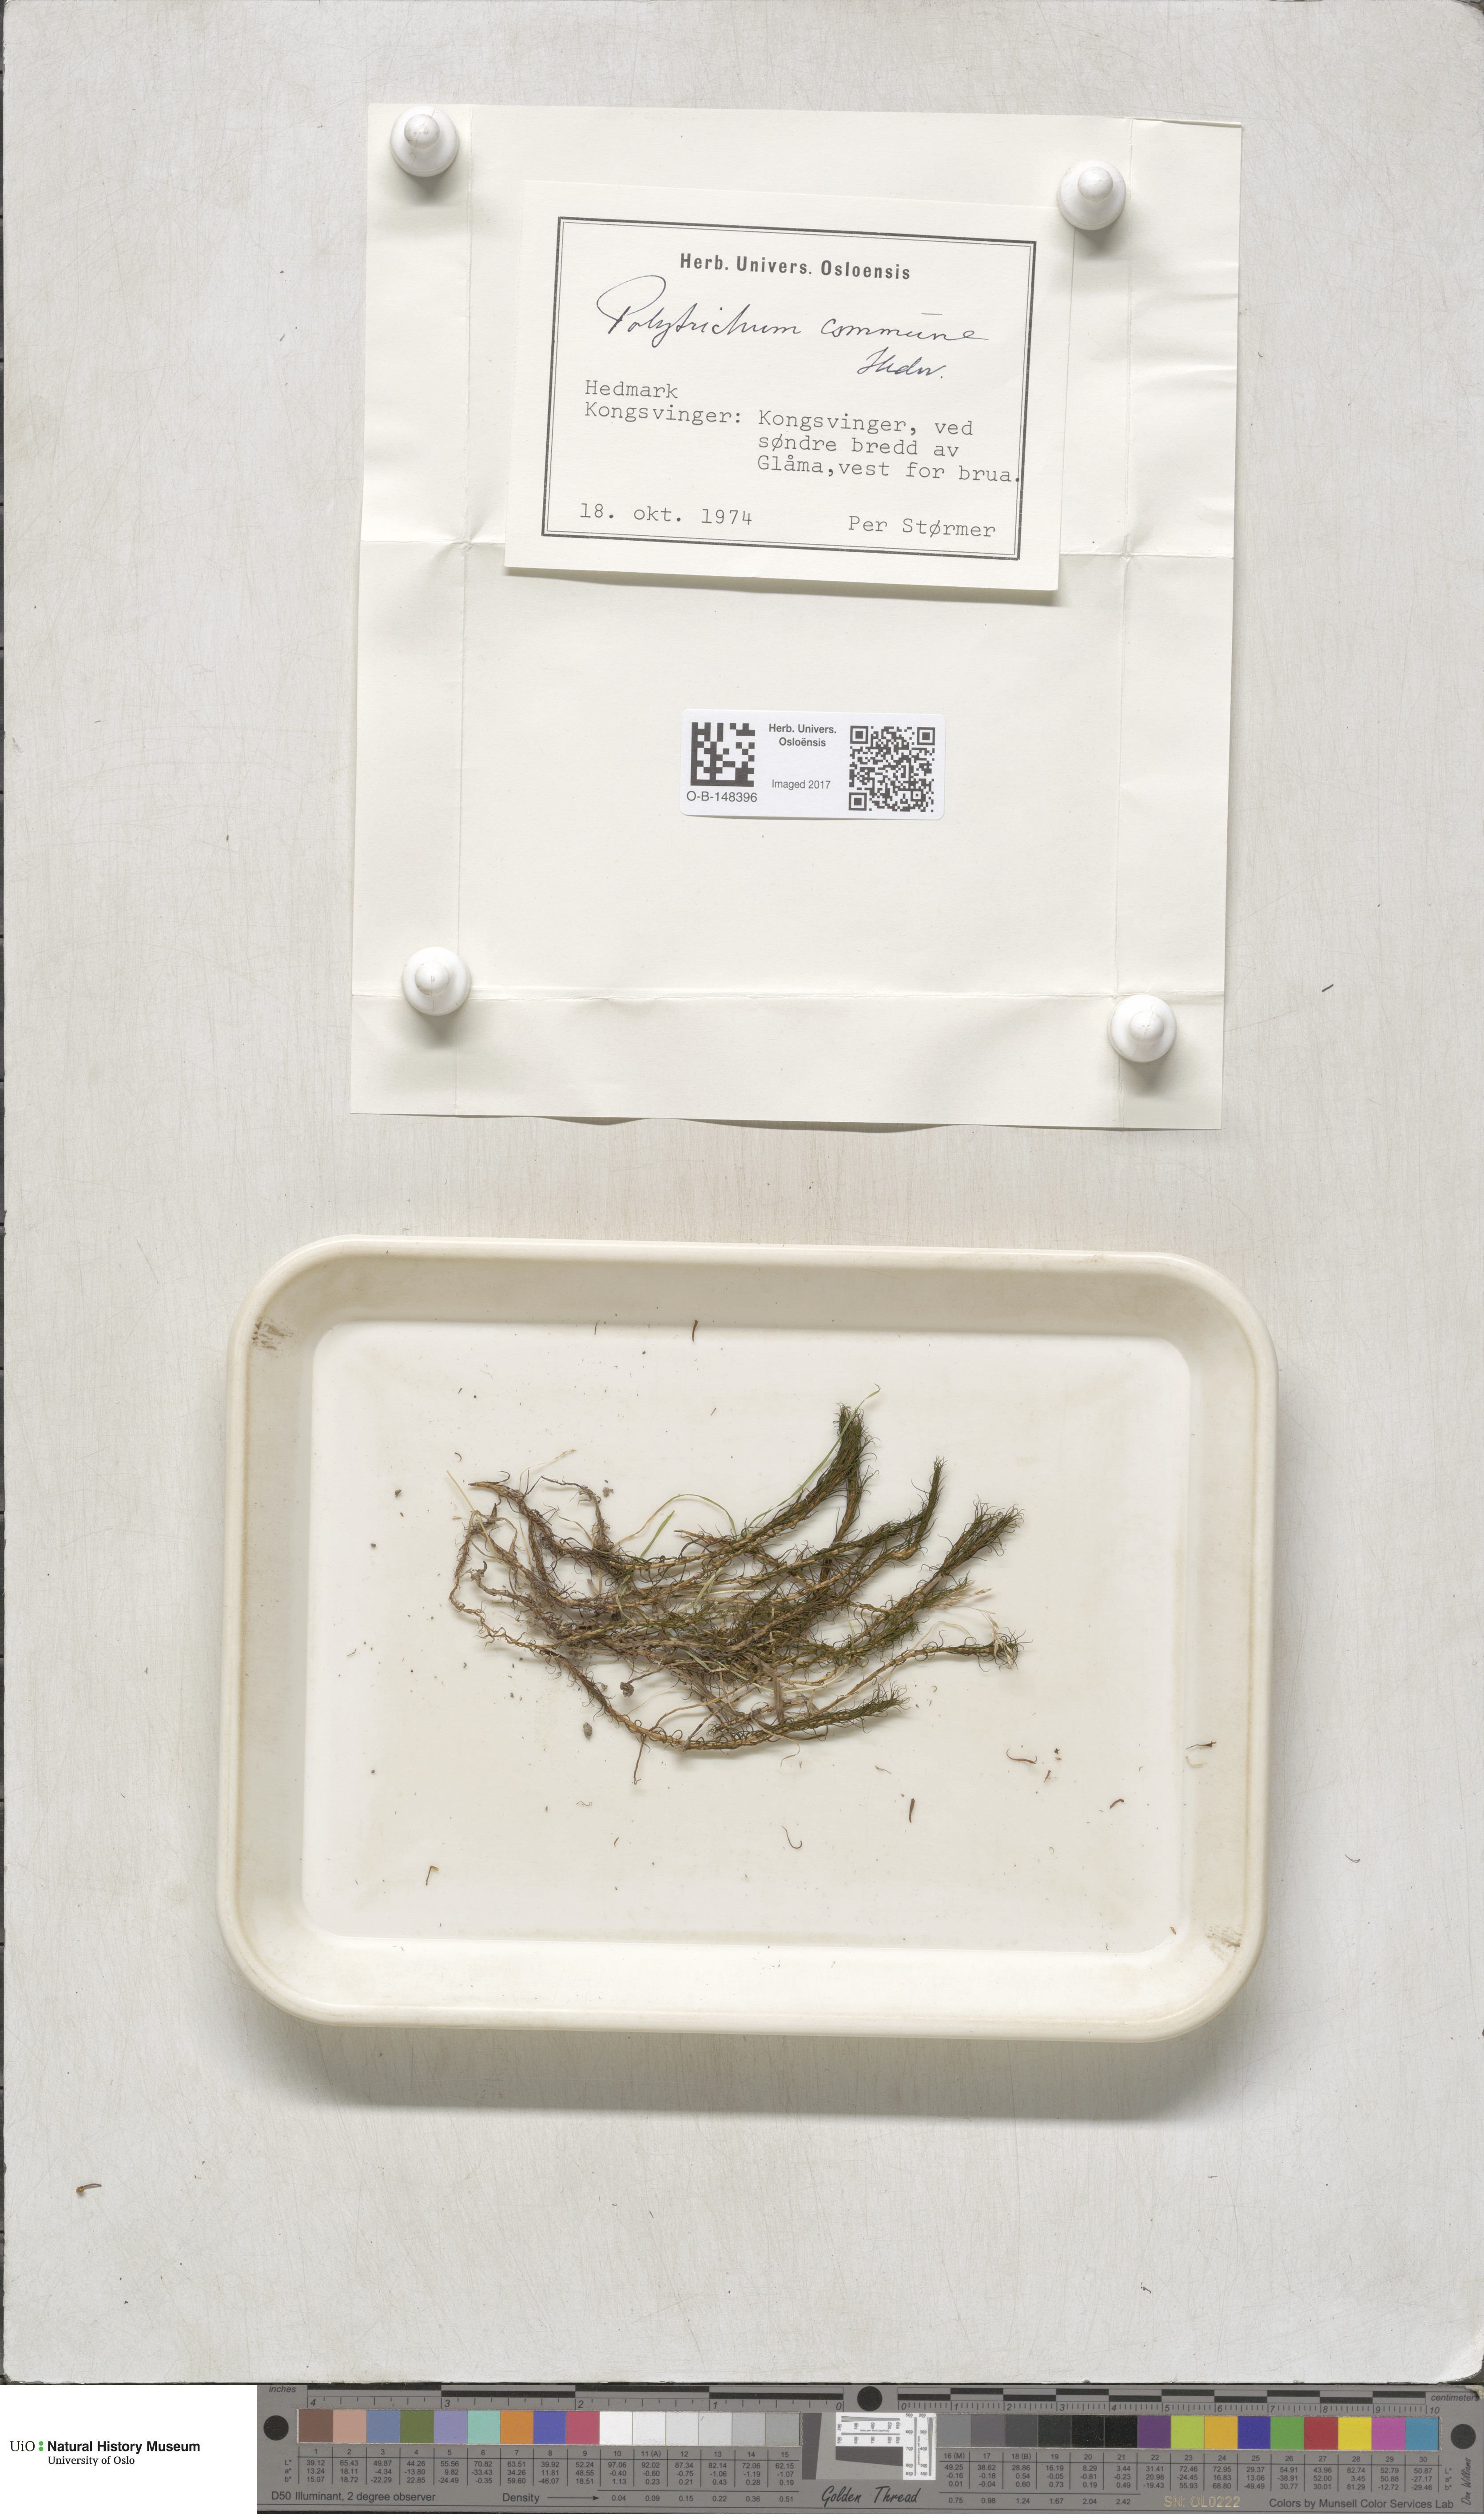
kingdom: Plantae
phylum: Bryophyta
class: Polytrichopsida
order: Polytrichales
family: Polytrichaceae
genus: Polytrichum
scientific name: Polytrichum commune
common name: Common haircap
